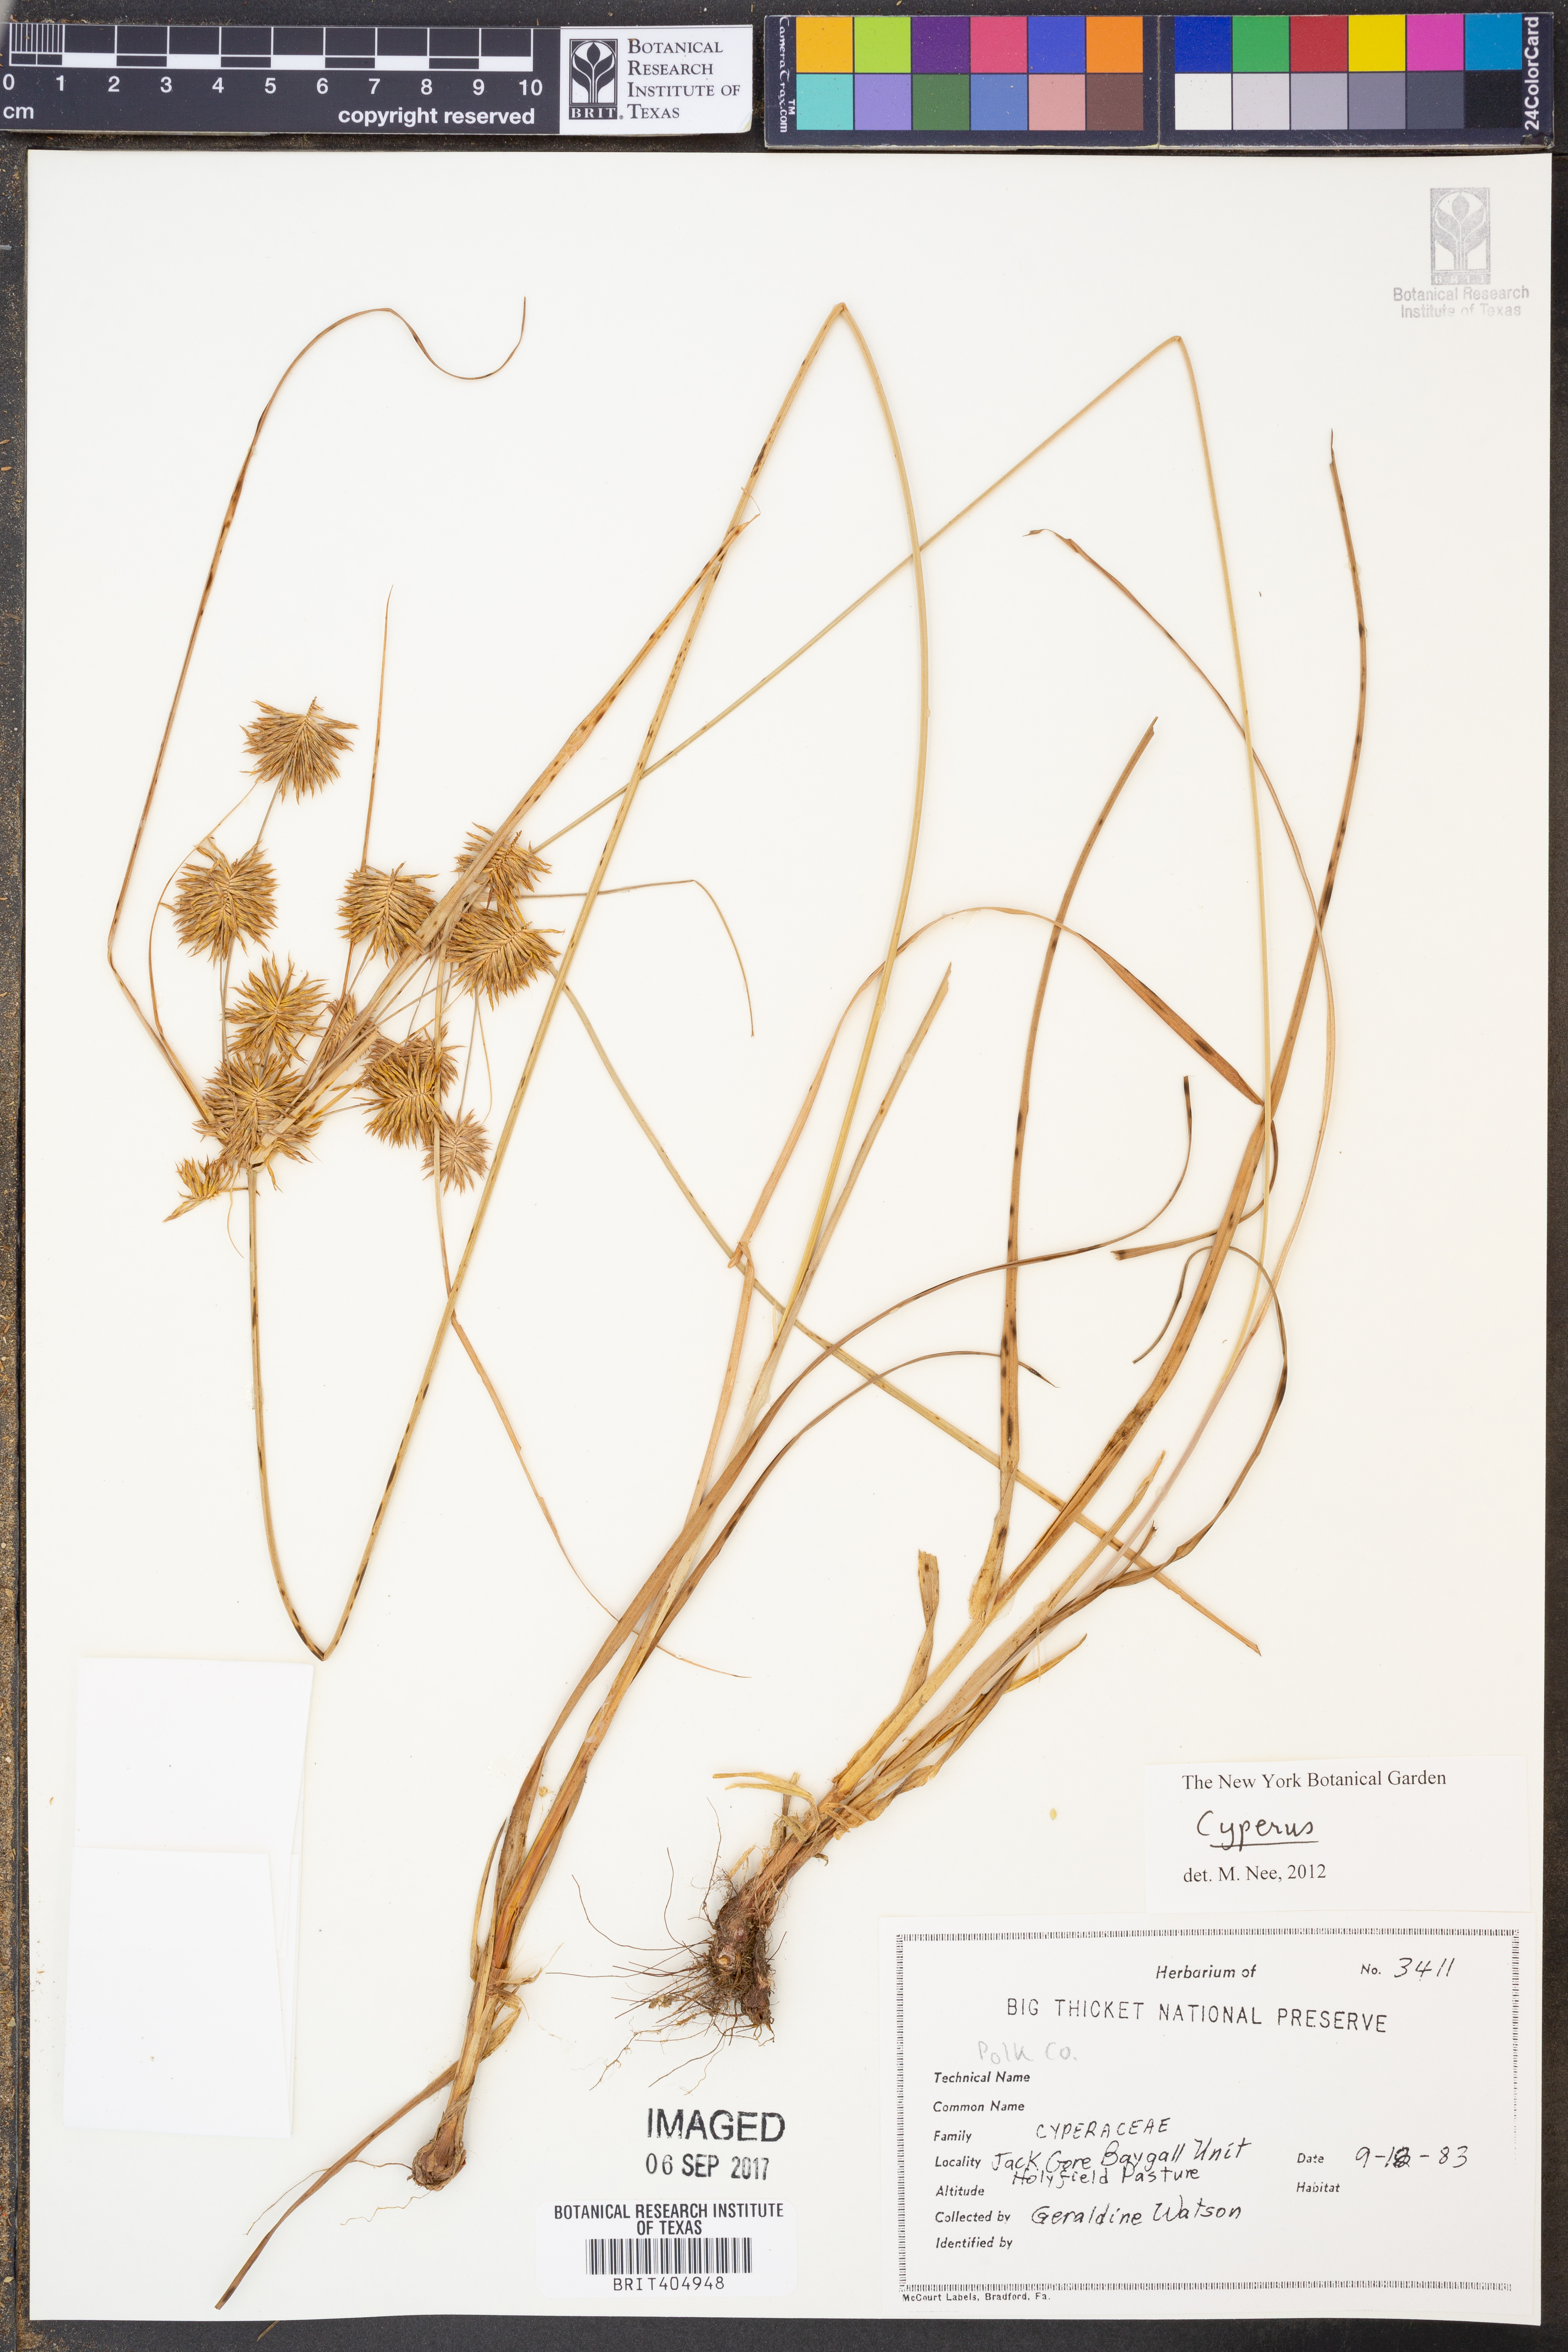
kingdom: Plantae
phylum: Tracheophyta
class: Liliopsida
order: Poales
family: Cyperaceae
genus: Cyperus
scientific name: Cyperus
